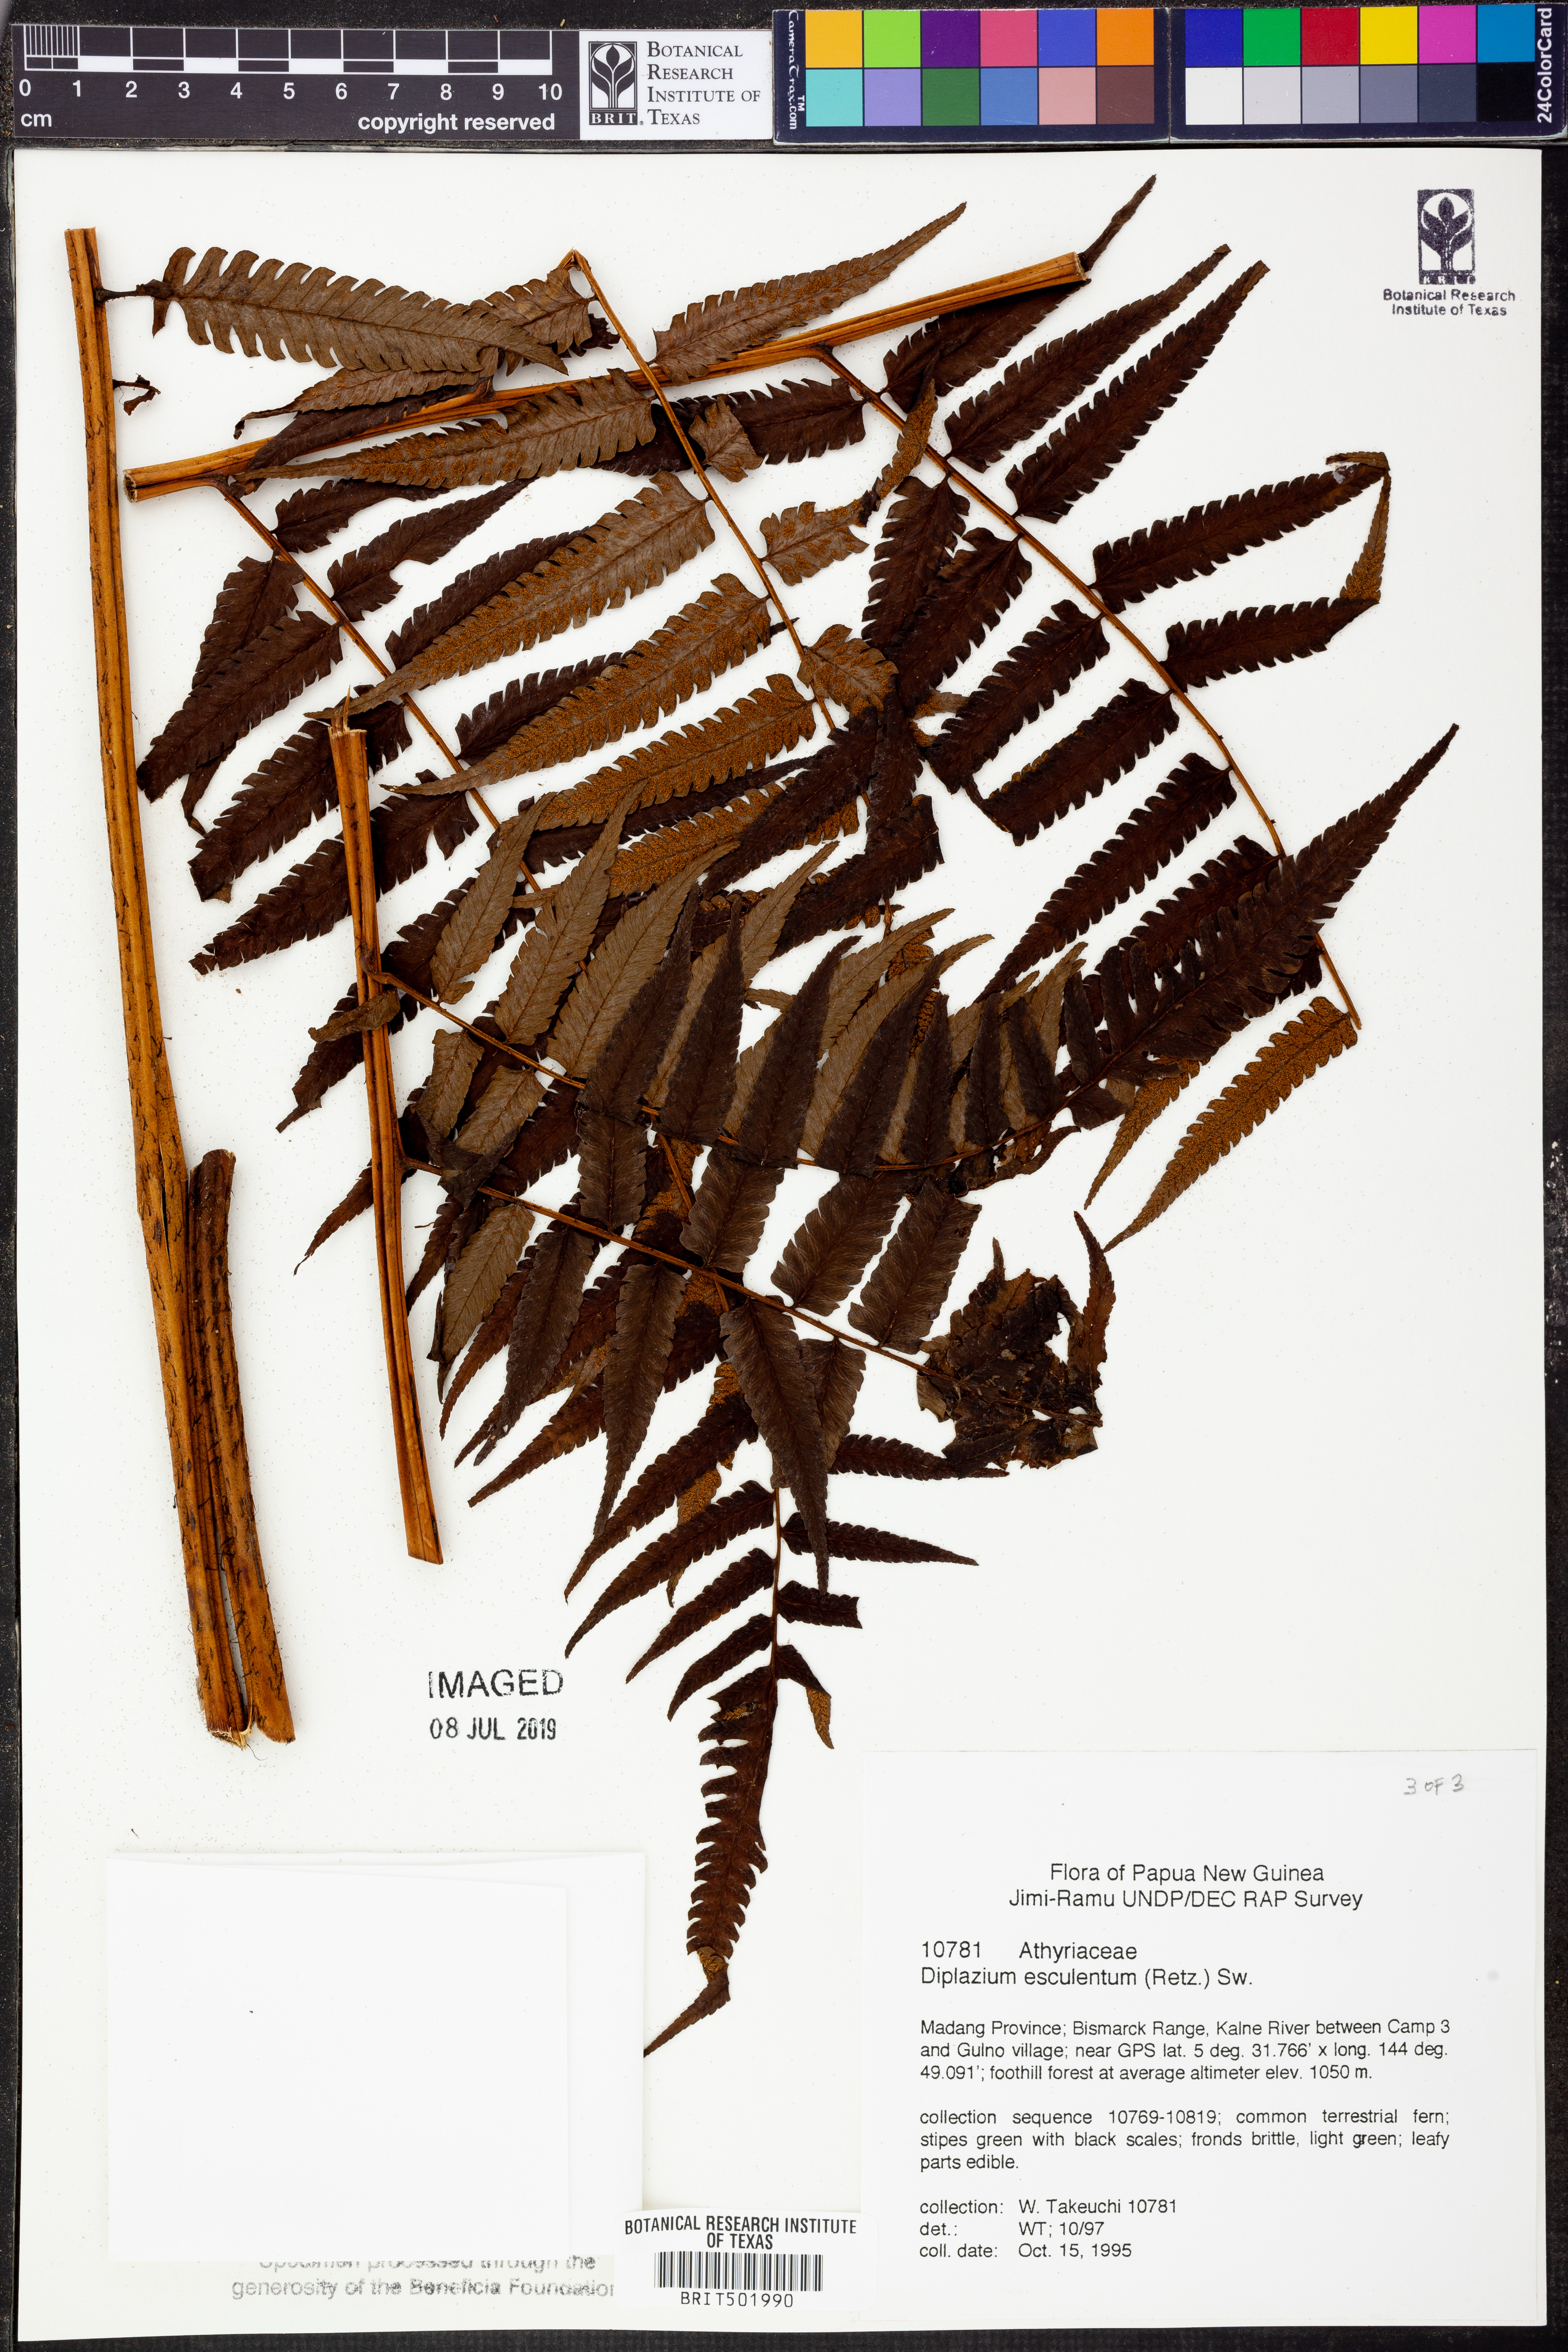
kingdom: Plantae
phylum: Tracheophyta
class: Polypodiopsida
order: Polypodiales
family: Athyriaceae
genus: Diplazium
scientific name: Diplazium esculentum
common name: Vegetable fern
